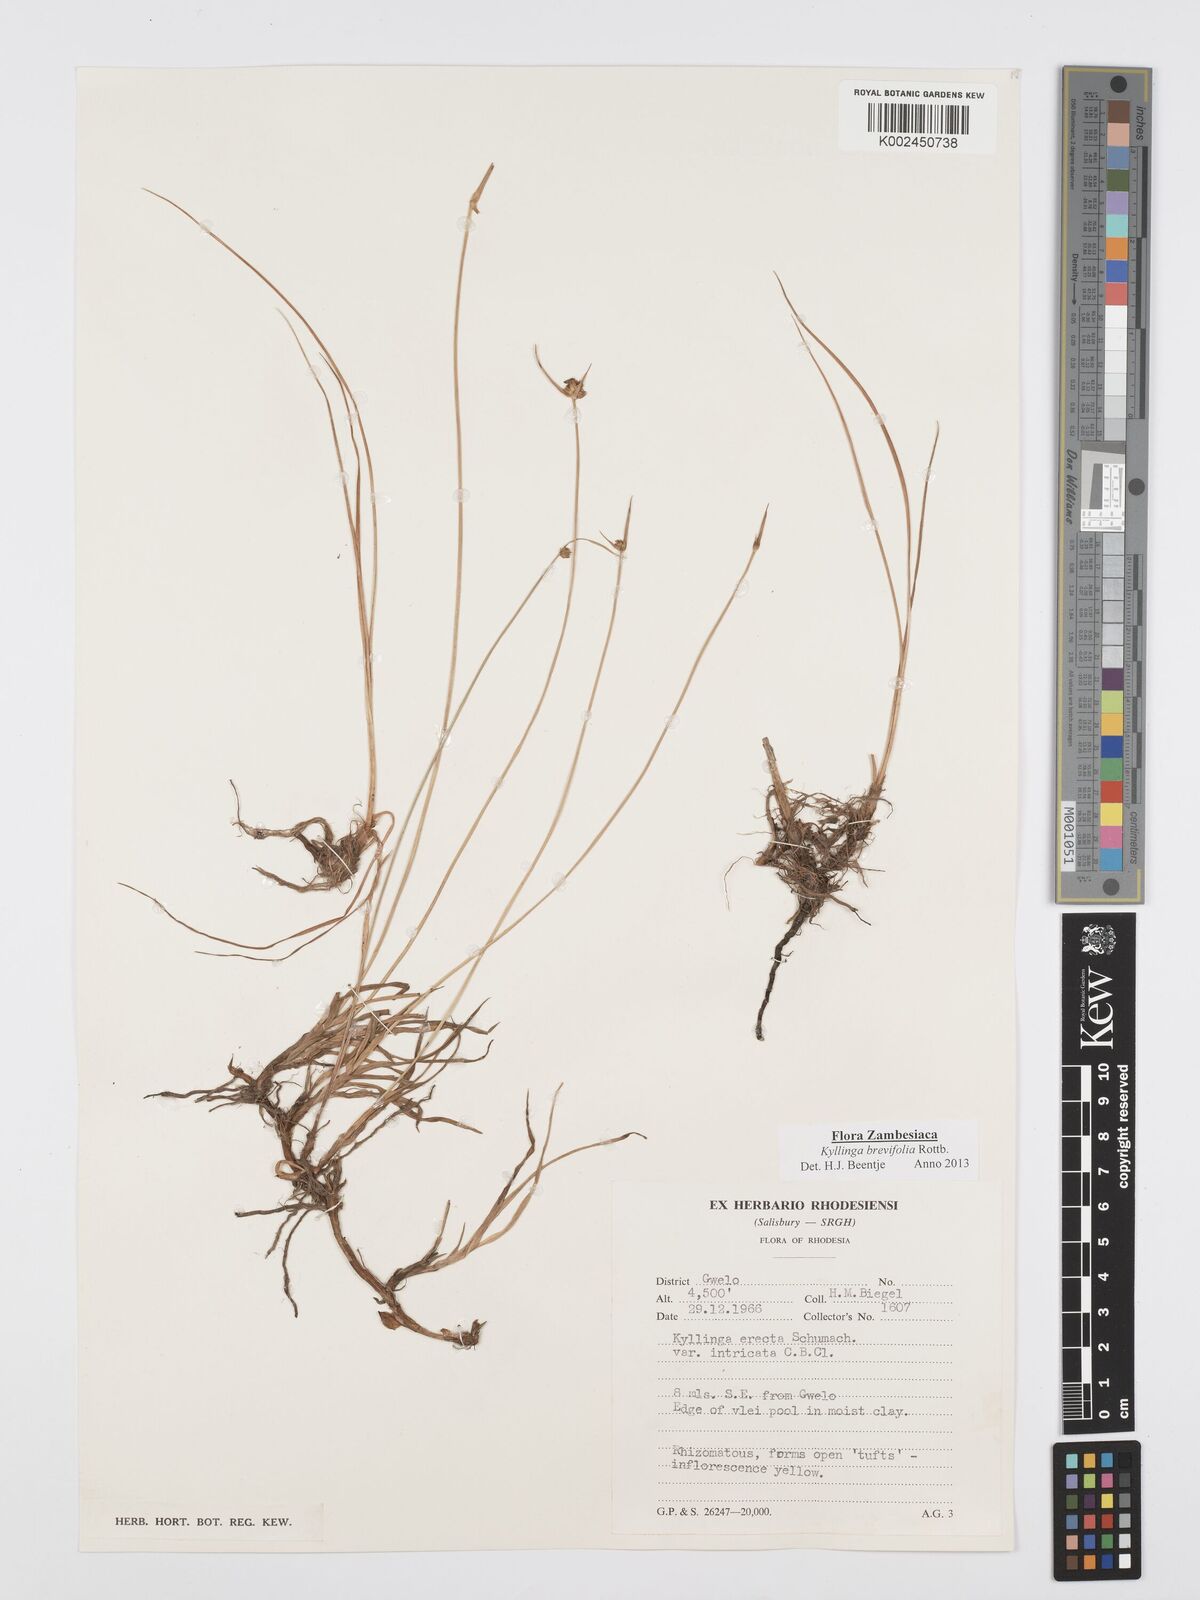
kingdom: Plantae
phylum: Tracheophyta
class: Liliopsida
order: Poales
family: Cyperaceae
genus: Cyperus
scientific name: Cyperus brevifolius
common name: Globe kyllinga
